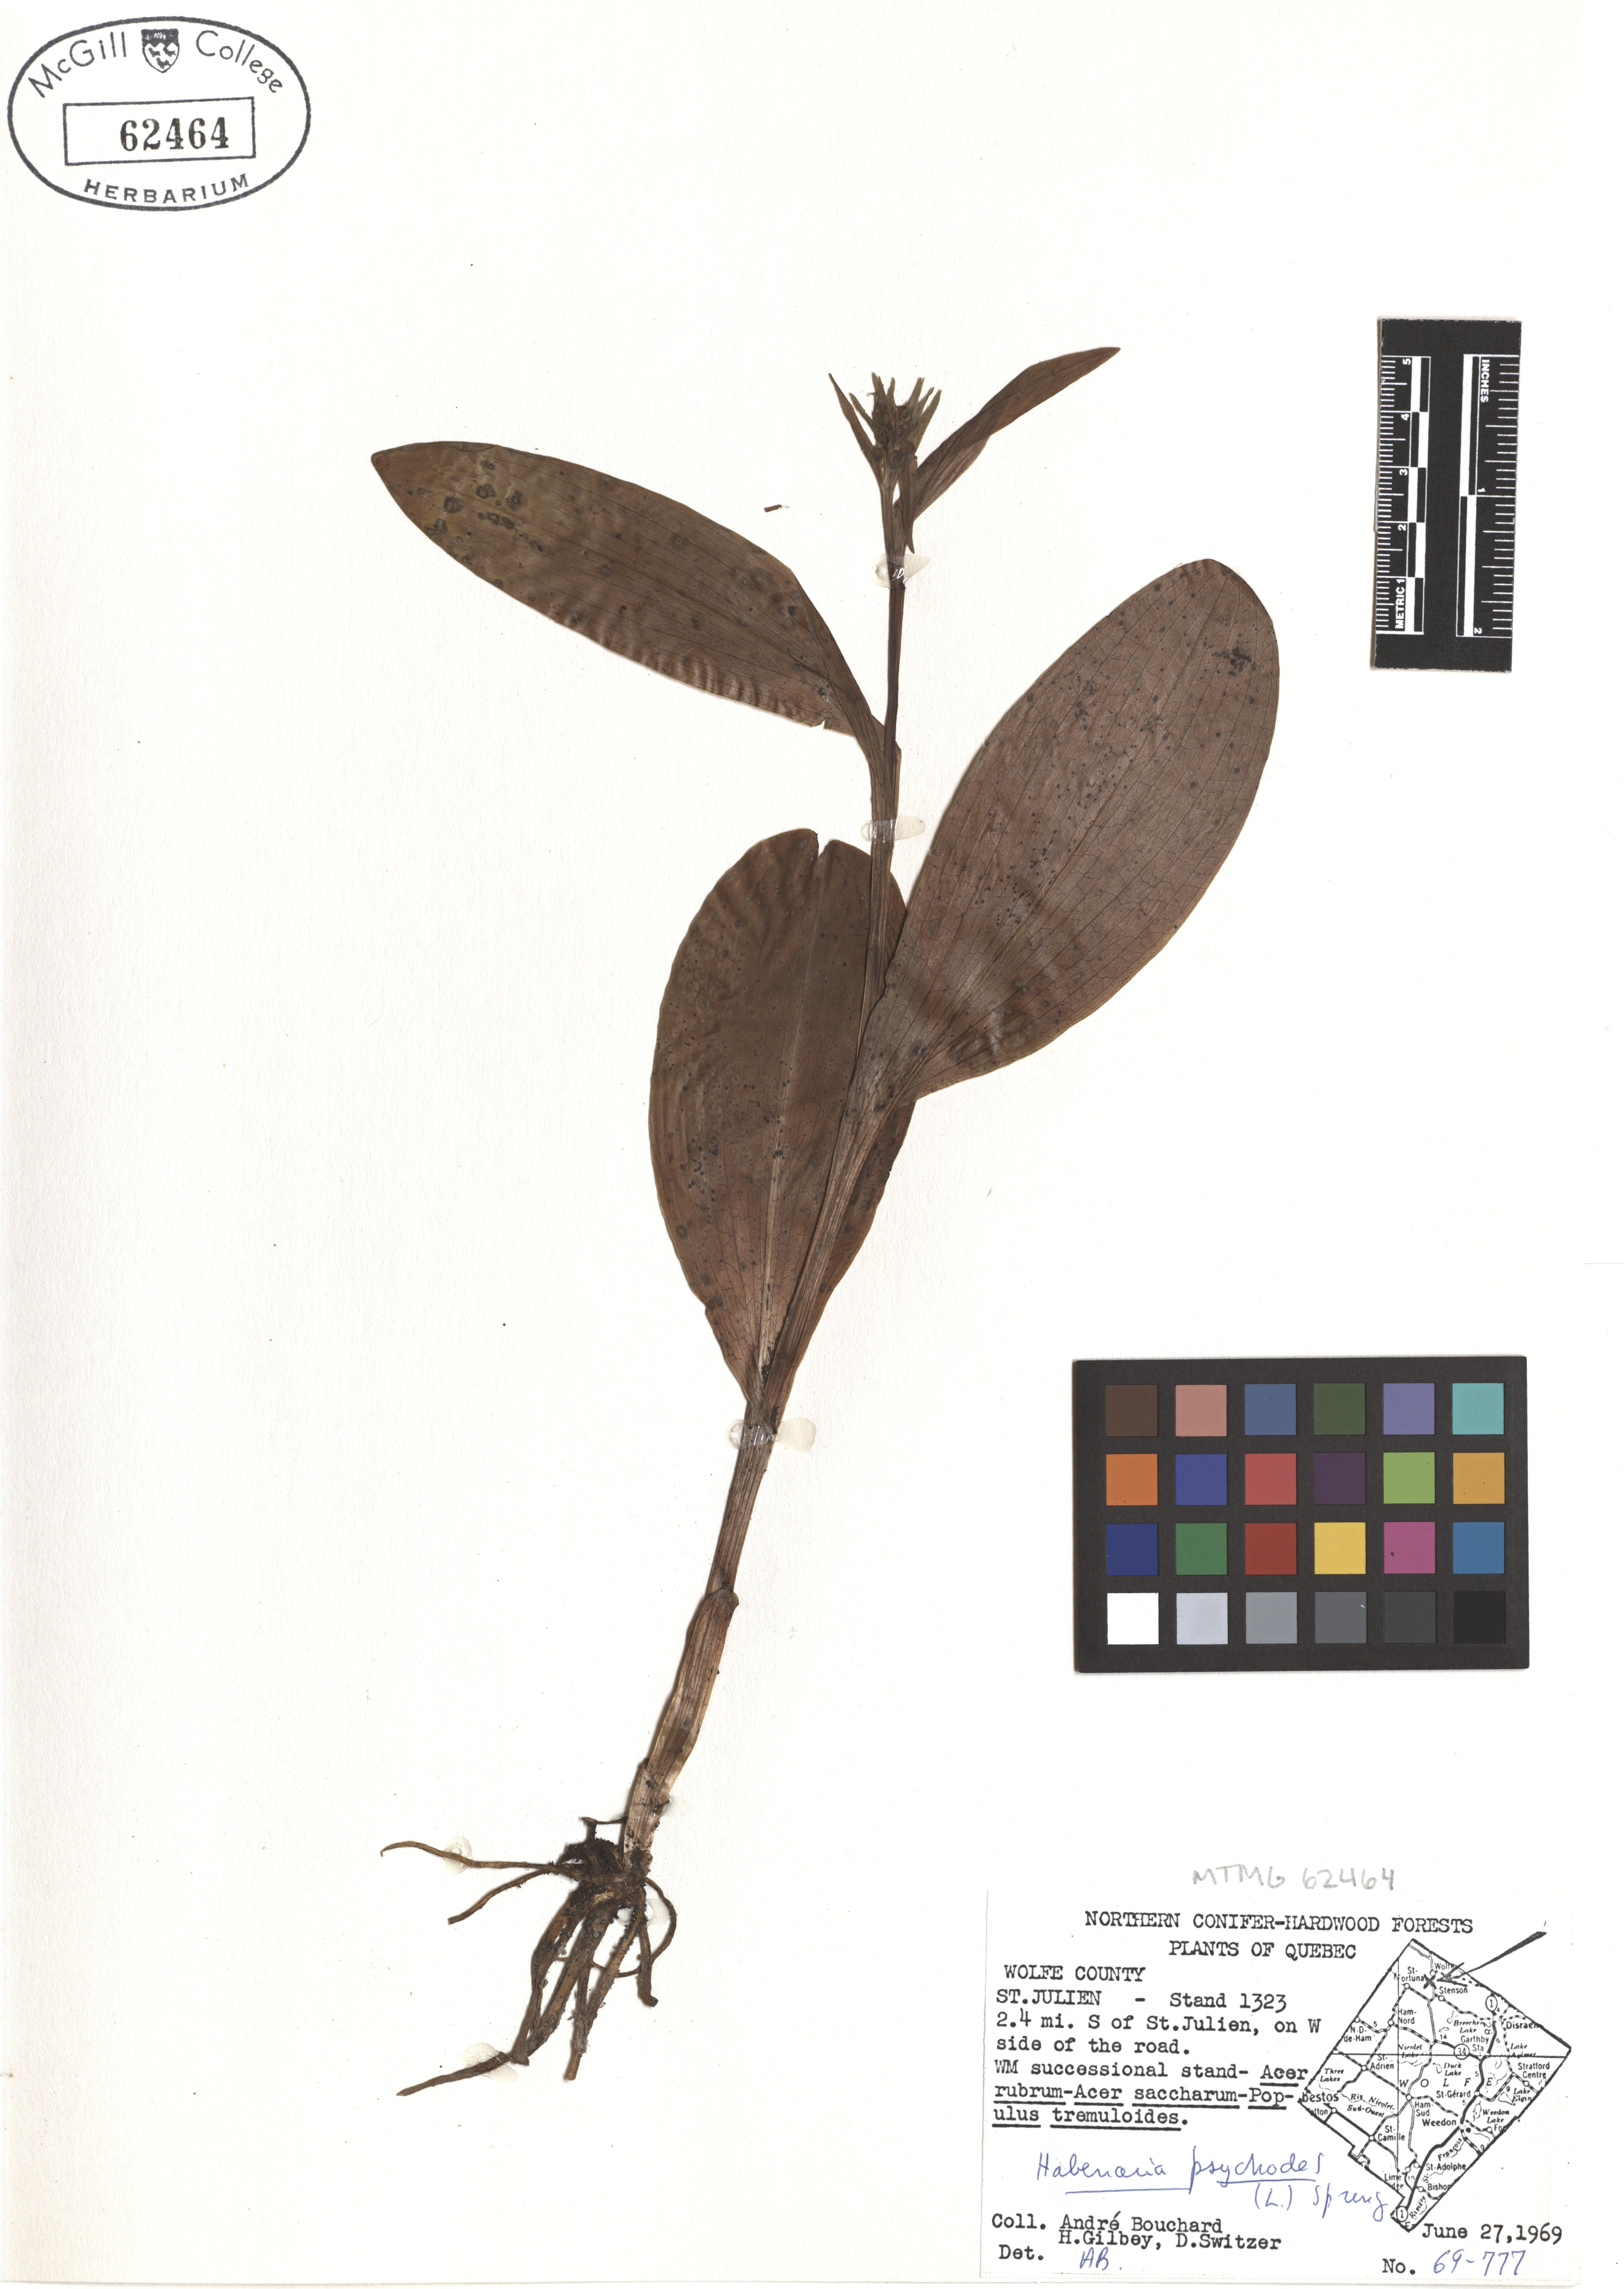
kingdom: Plantae
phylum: Tracheophyta
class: Liliopsida
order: Asparagales
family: Orchidaceae
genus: Platanthera
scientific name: Platanthera psycodes
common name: Lesser purple fringed orchid
